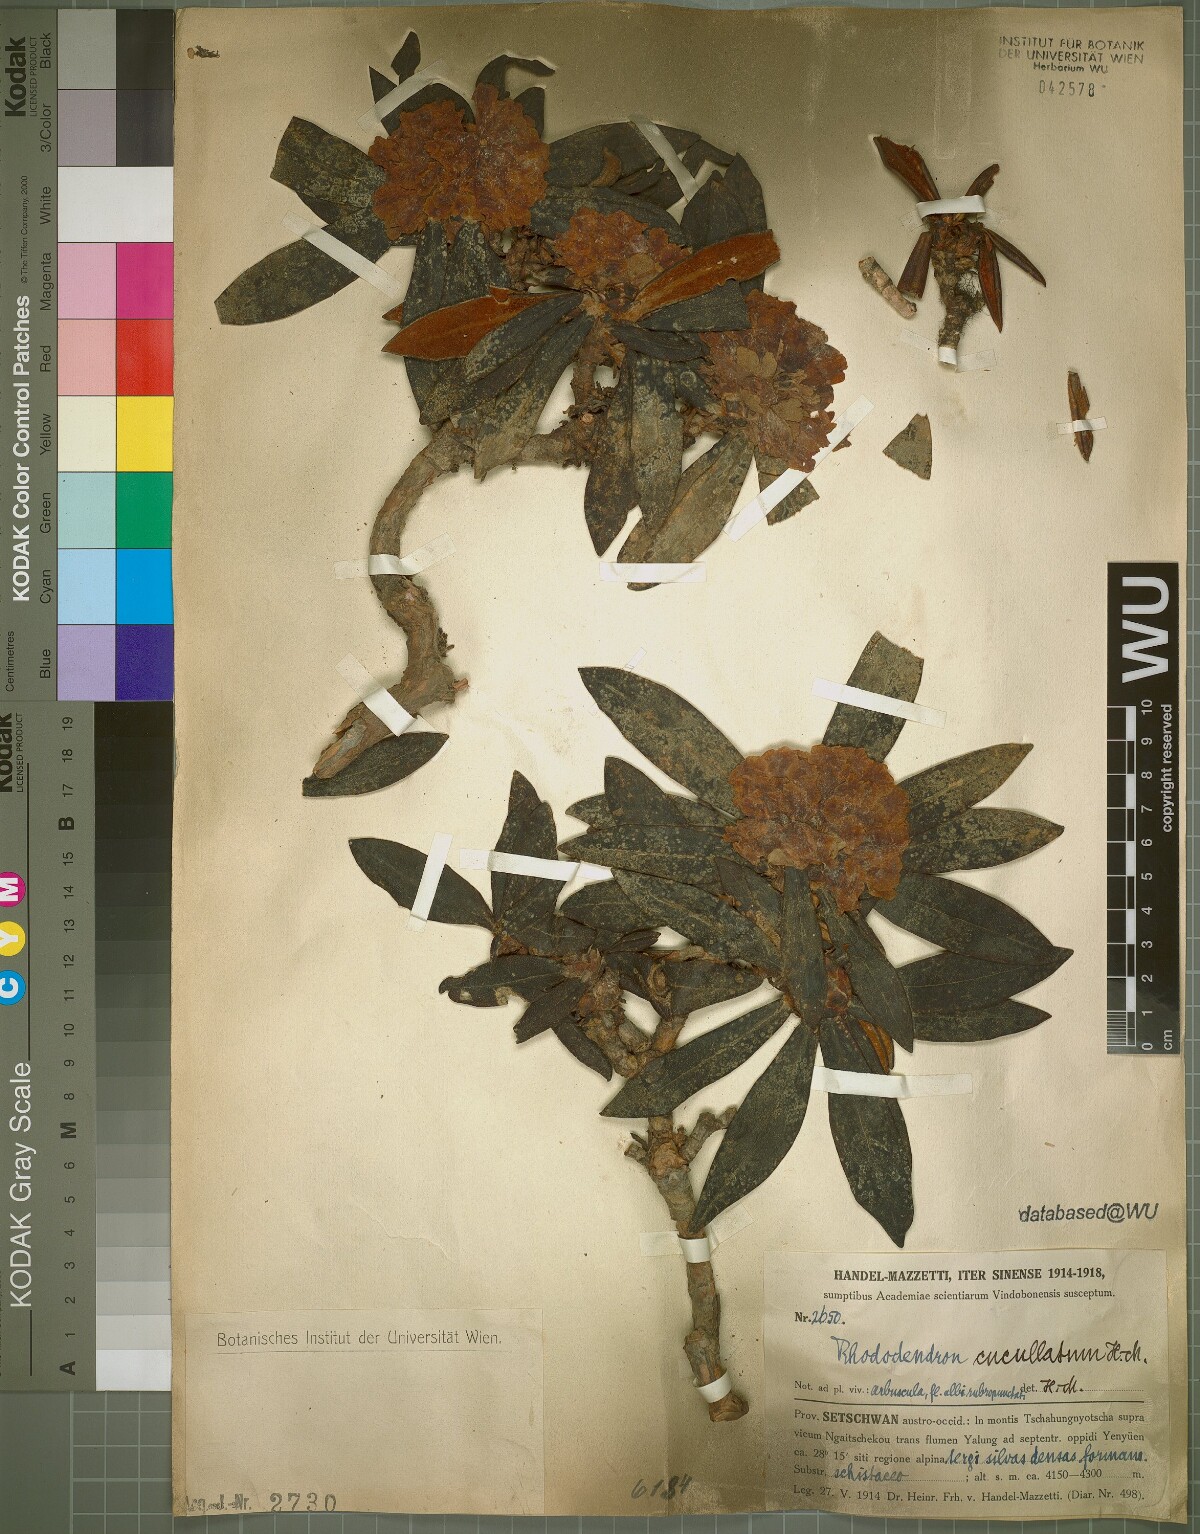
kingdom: Plantae
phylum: Tracheophyta
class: Magnoliopsida
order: Ericales
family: Ericaceae
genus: Rhododendron
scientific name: Rhododendron roxieanum
